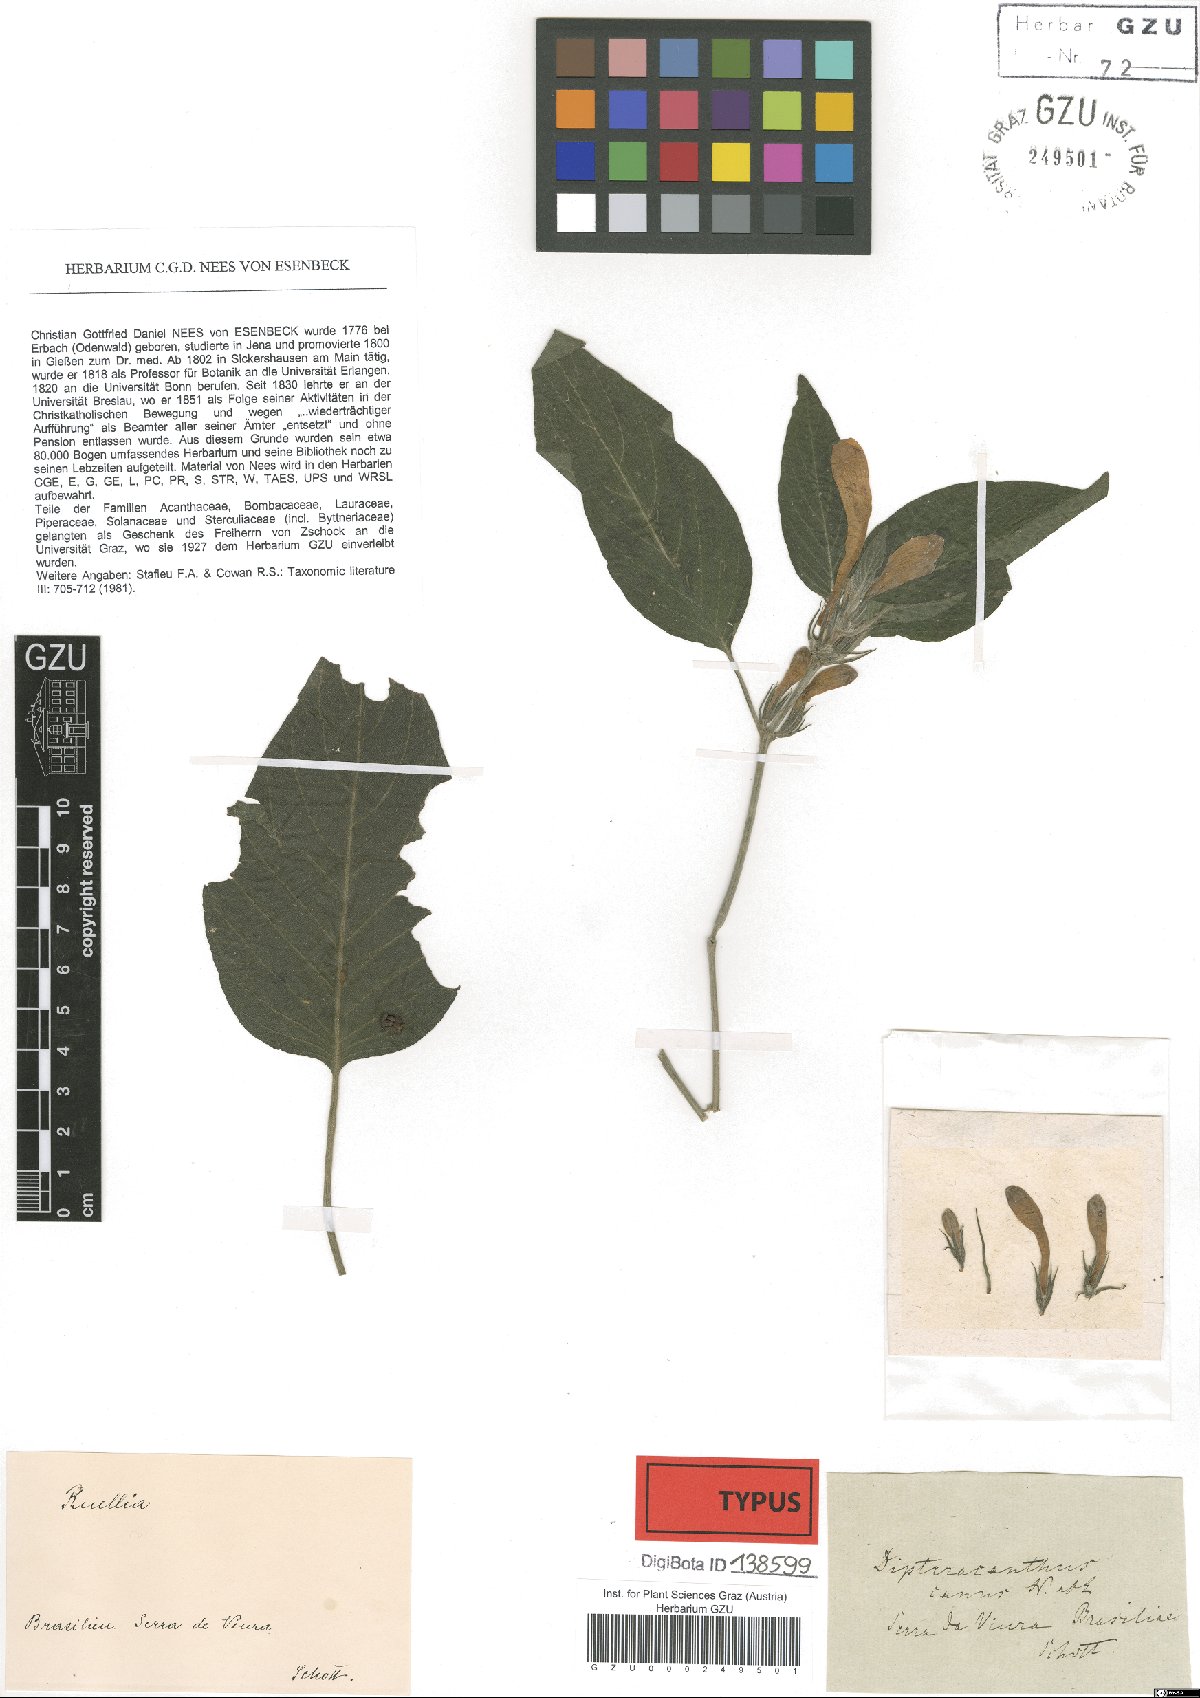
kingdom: Plantae
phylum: Tracheophyta
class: Magnoliopsida
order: Lamiales
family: Acanthaceae
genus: Ruellia
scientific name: Ruellia Dipteracanthus canus
